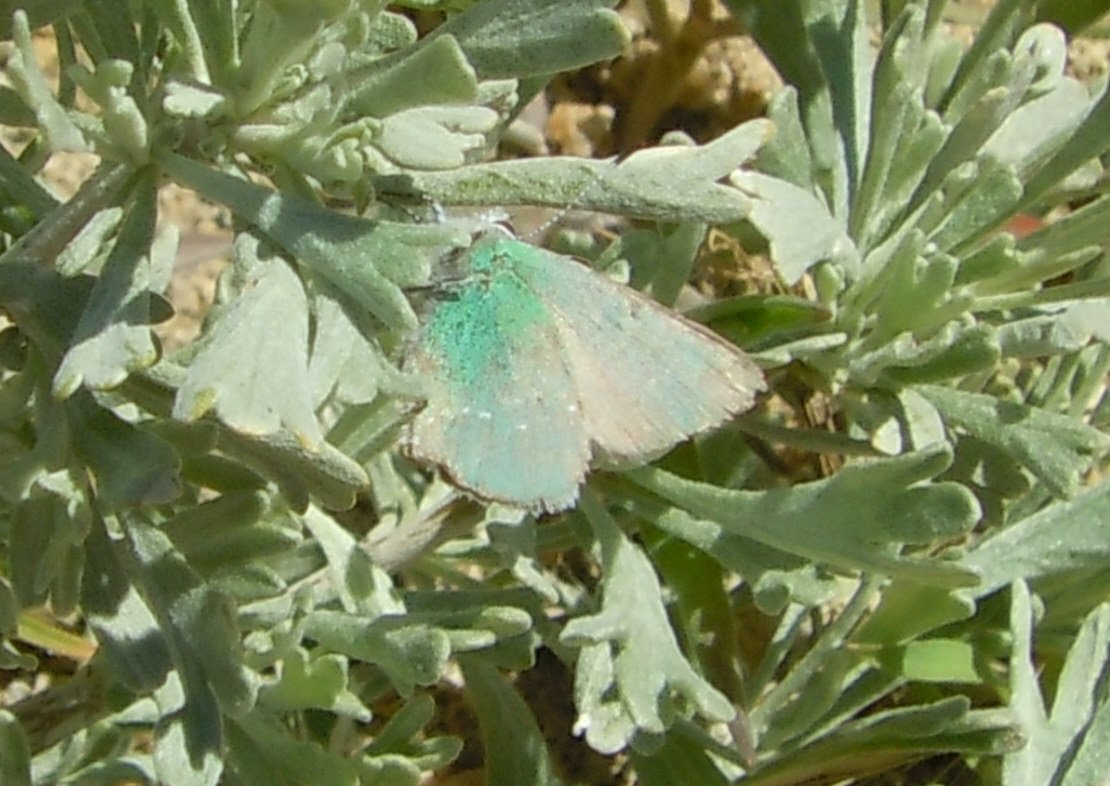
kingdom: Animalia
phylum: Arthropoda
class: Insecta
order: Lepidoptera
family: Lycaenidae
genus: Thecla
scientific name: Thecla sheridanii
